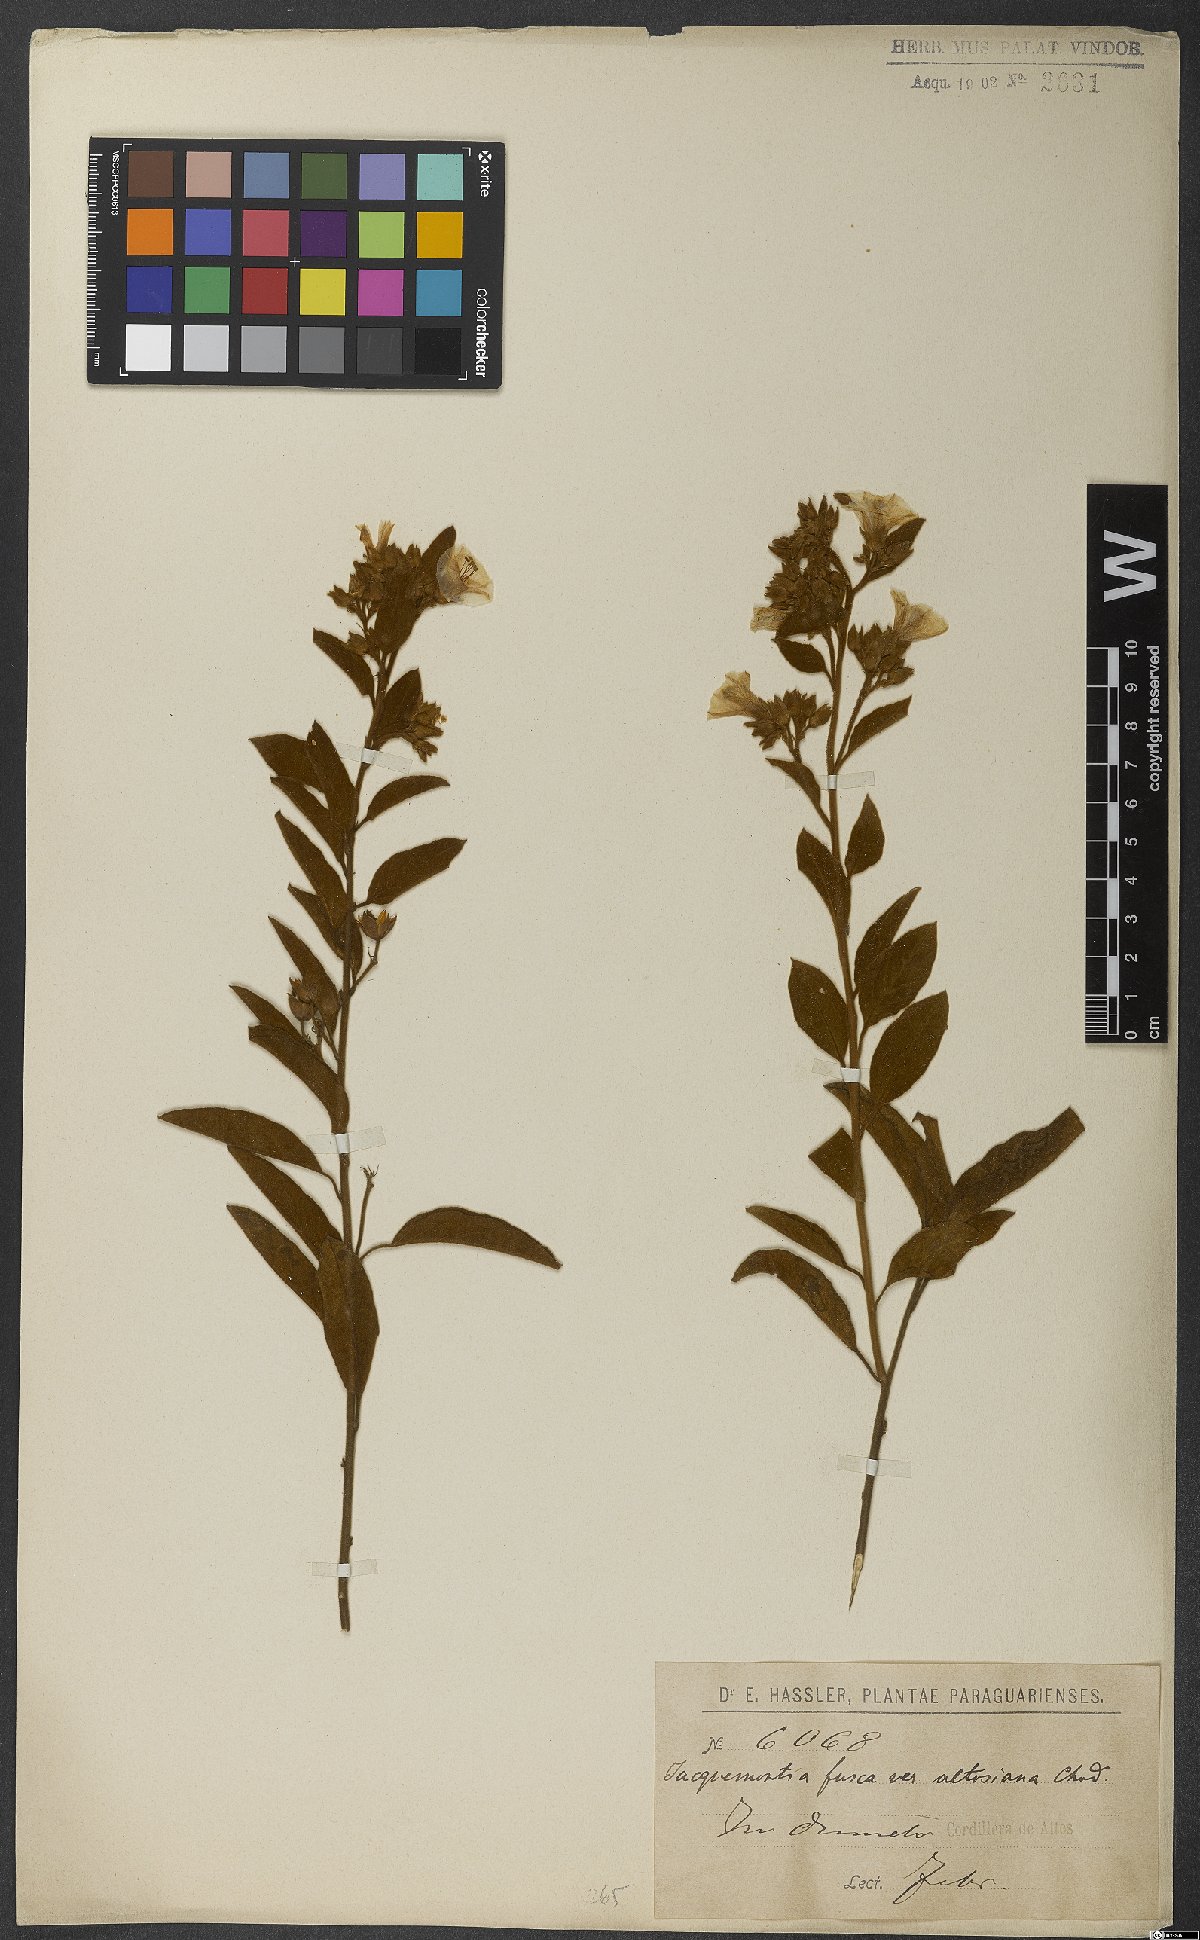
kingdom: Plantae
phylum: Tracheophyta
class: Magnoliopsida
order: Solanales
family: Convolvulaceae
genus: Jacquemontia
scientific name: Jacquemontia fusca
